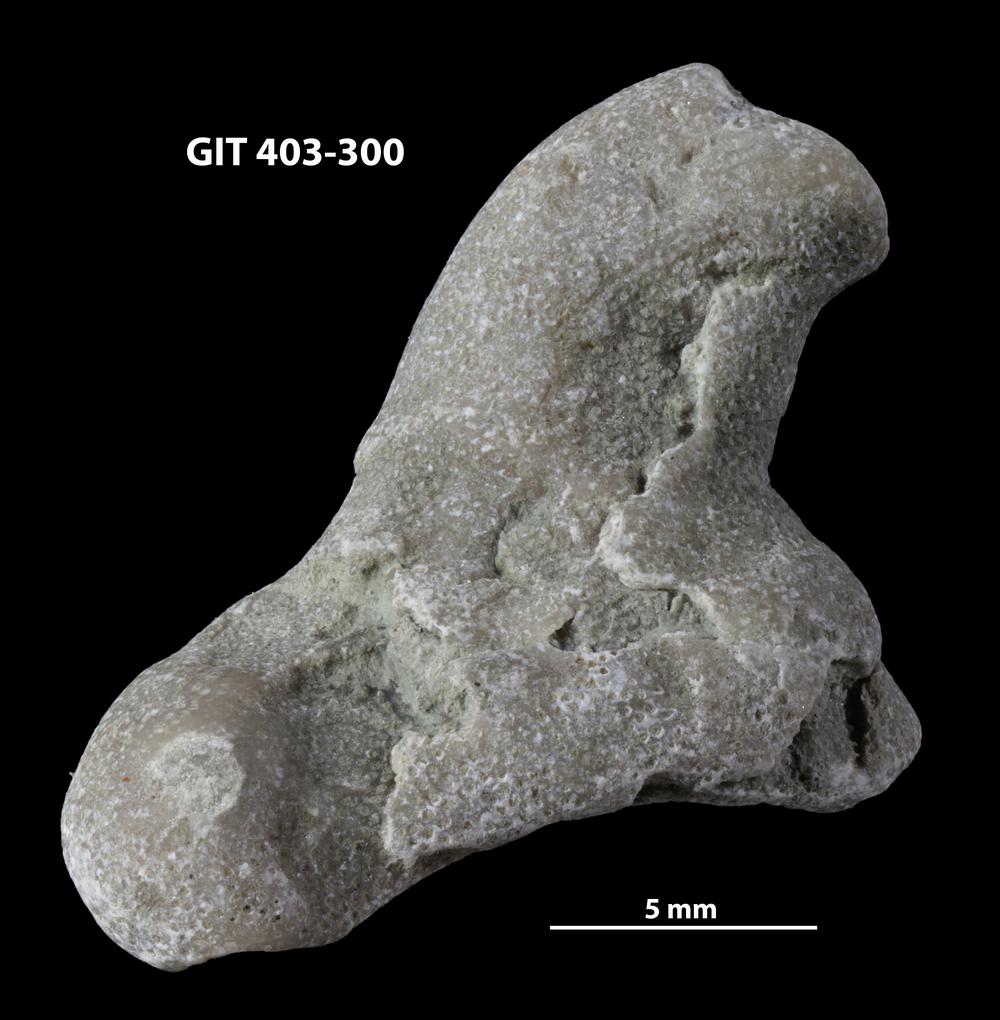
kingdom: Animalia
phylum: Bryozoa
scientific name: Bryozoa
